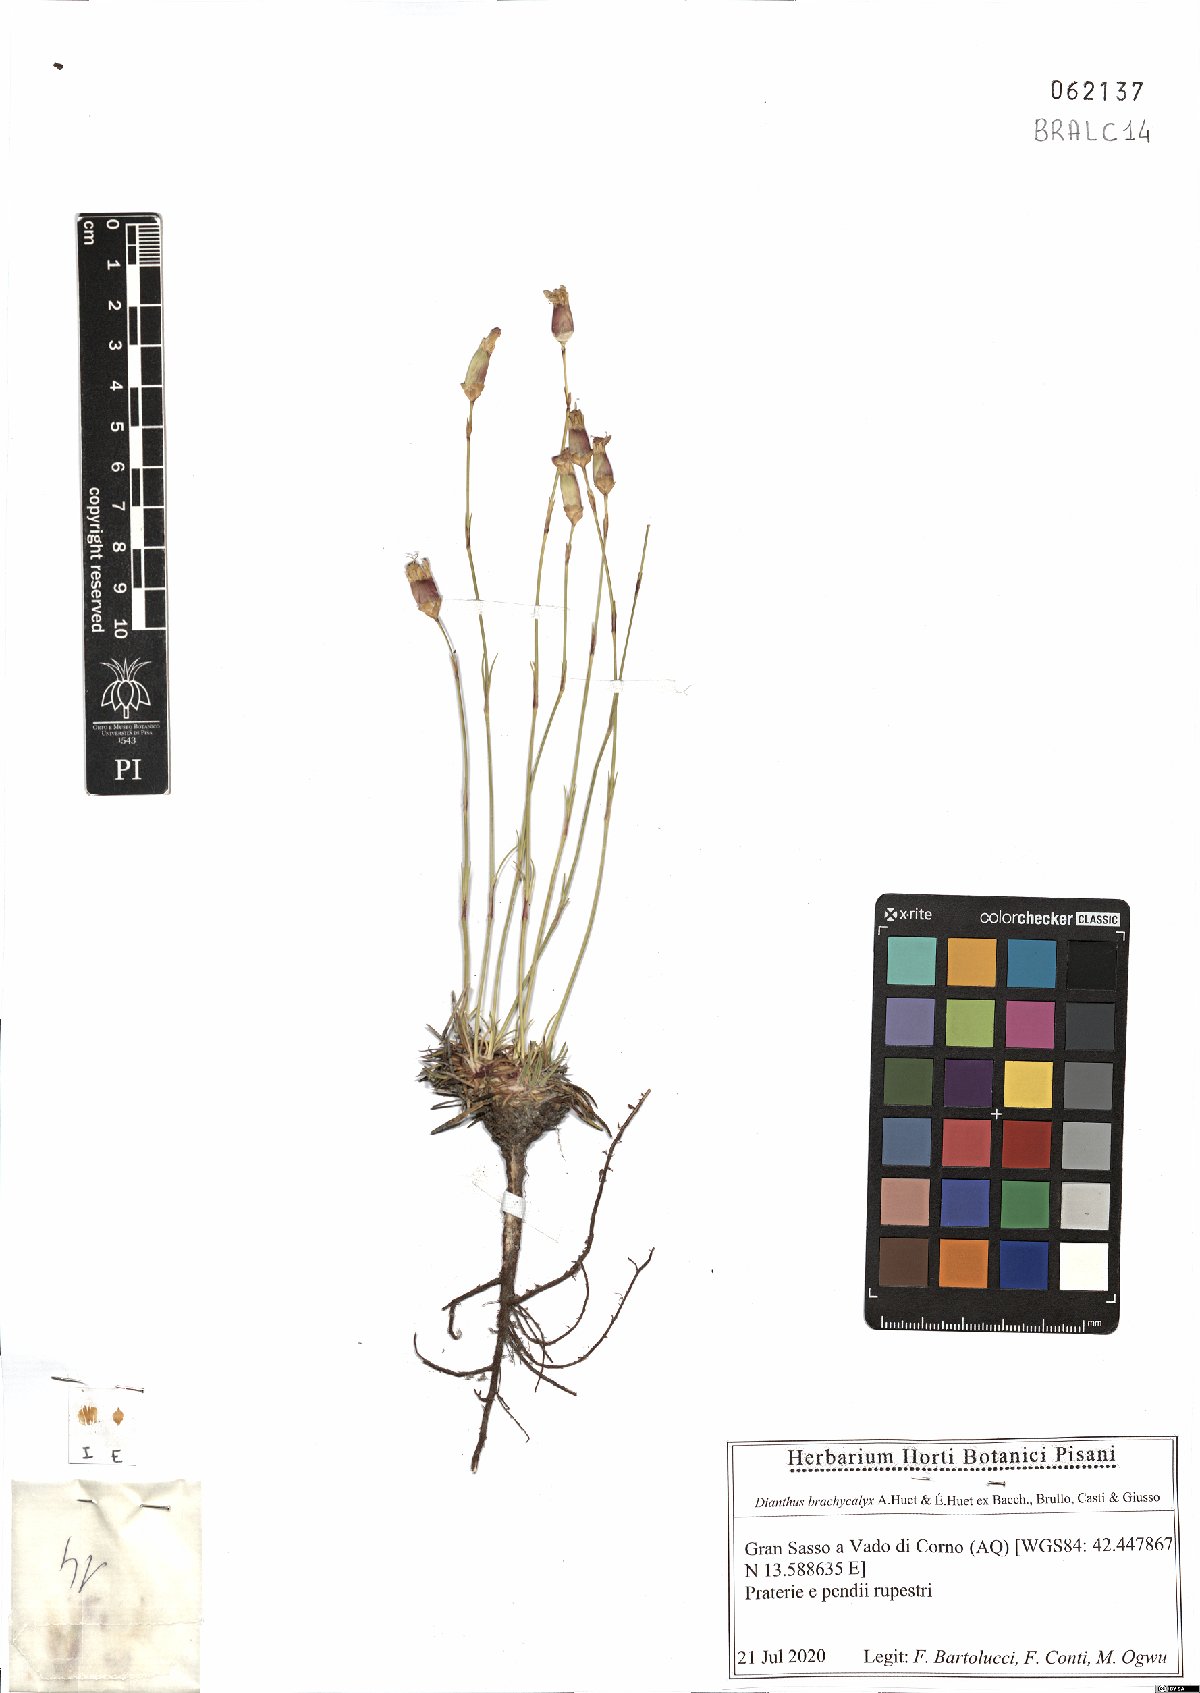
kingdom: Plantae
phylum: Tracheophyta
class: Magnoliopsida
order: Caryophyllales
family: Caryophyllaceae
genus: Dianthus
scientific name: Dianthus brachycalyx
